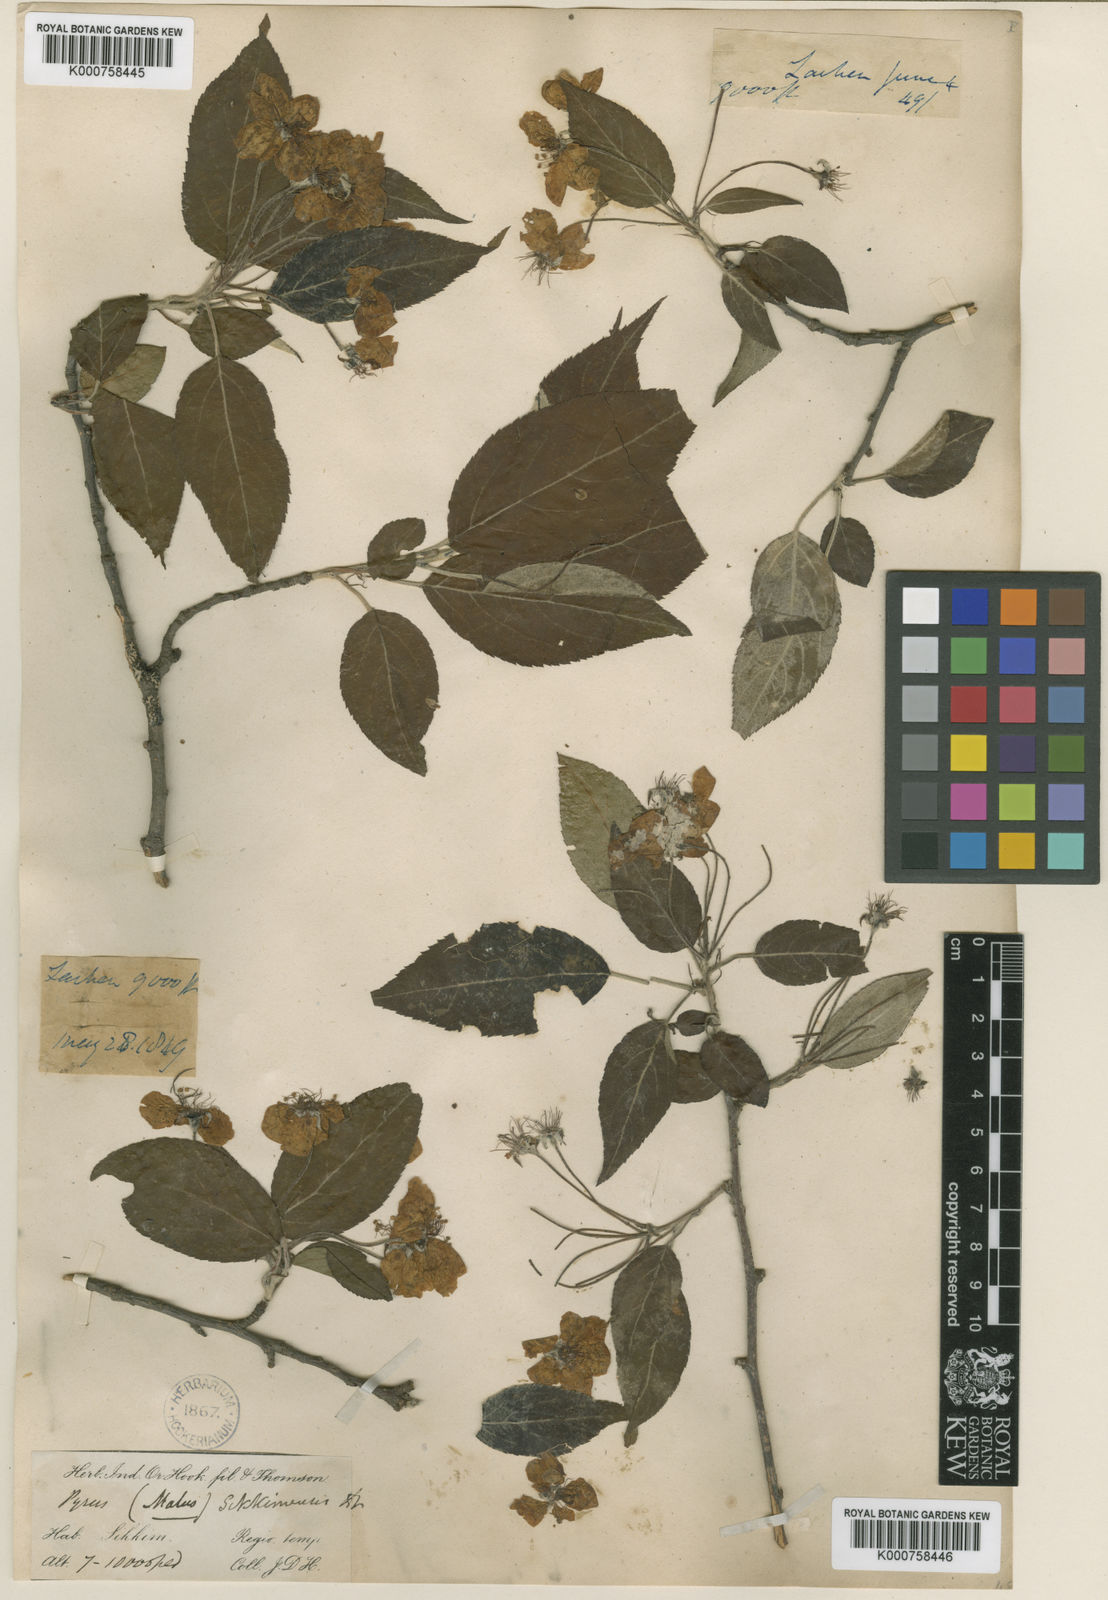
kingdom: Plantae
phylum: Tracheophyta
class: Magnoliopsida
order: Rosales
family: Rosaceae
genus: Malus
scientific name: Malus sikkimensis
